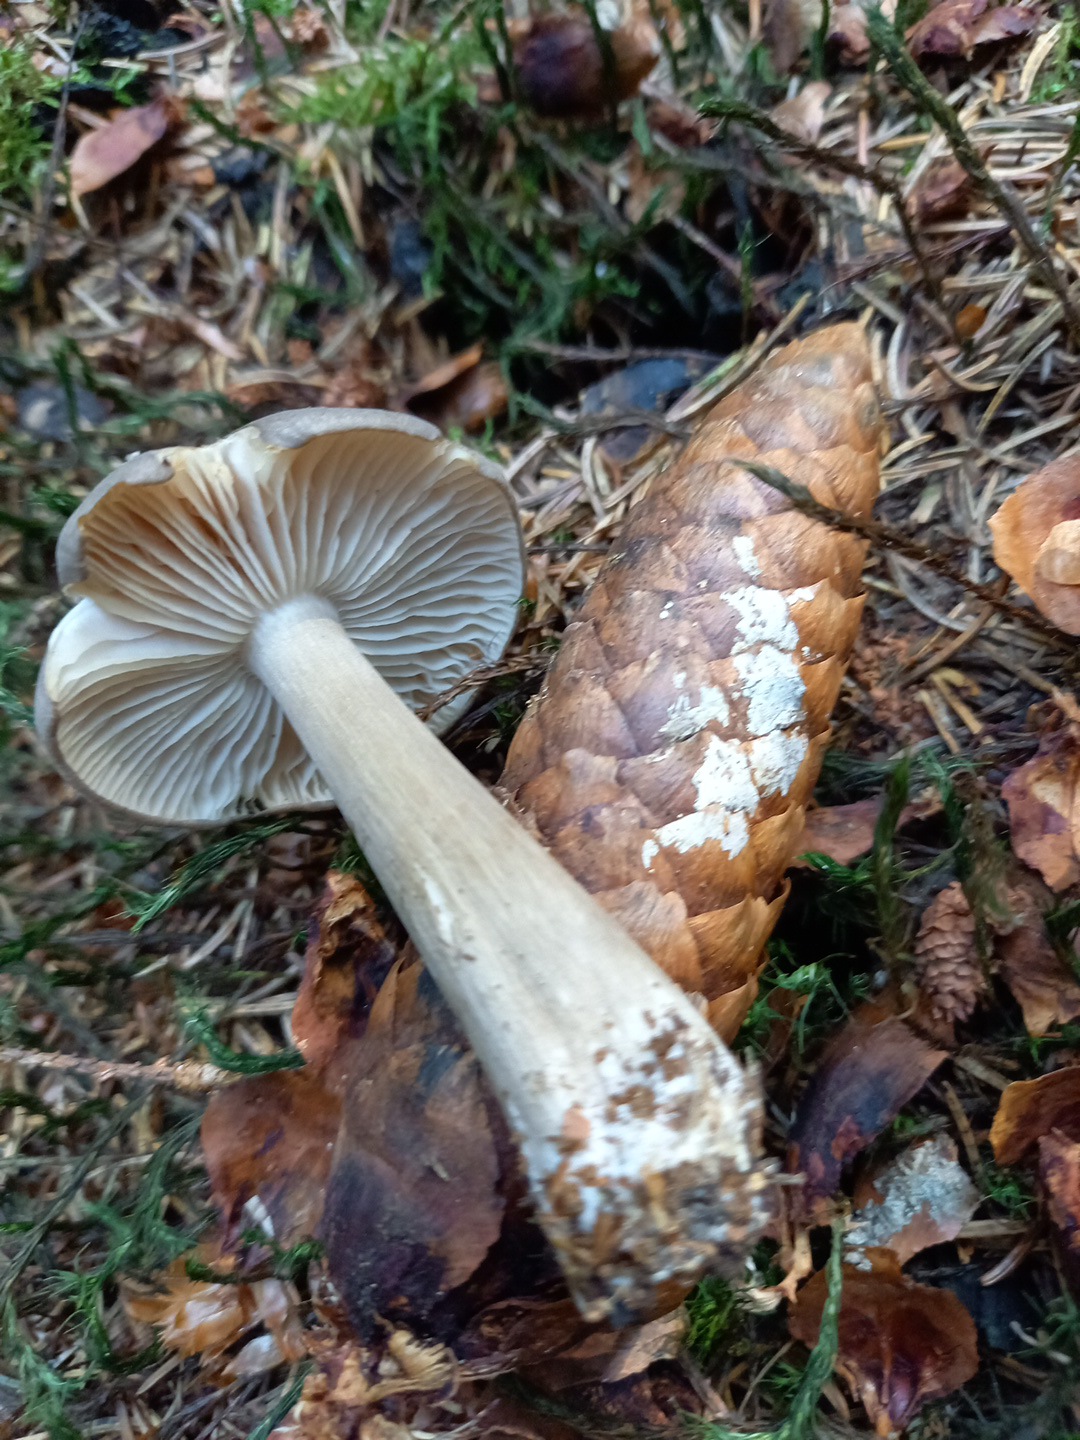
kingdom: Fungi
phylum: Basidiomycota
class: Agaricomycetes
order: Agaricales
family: Tricholomataceae
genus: Megacollybia
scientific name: Megacollybia platyphylla
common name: bredbladet væbnerhat
